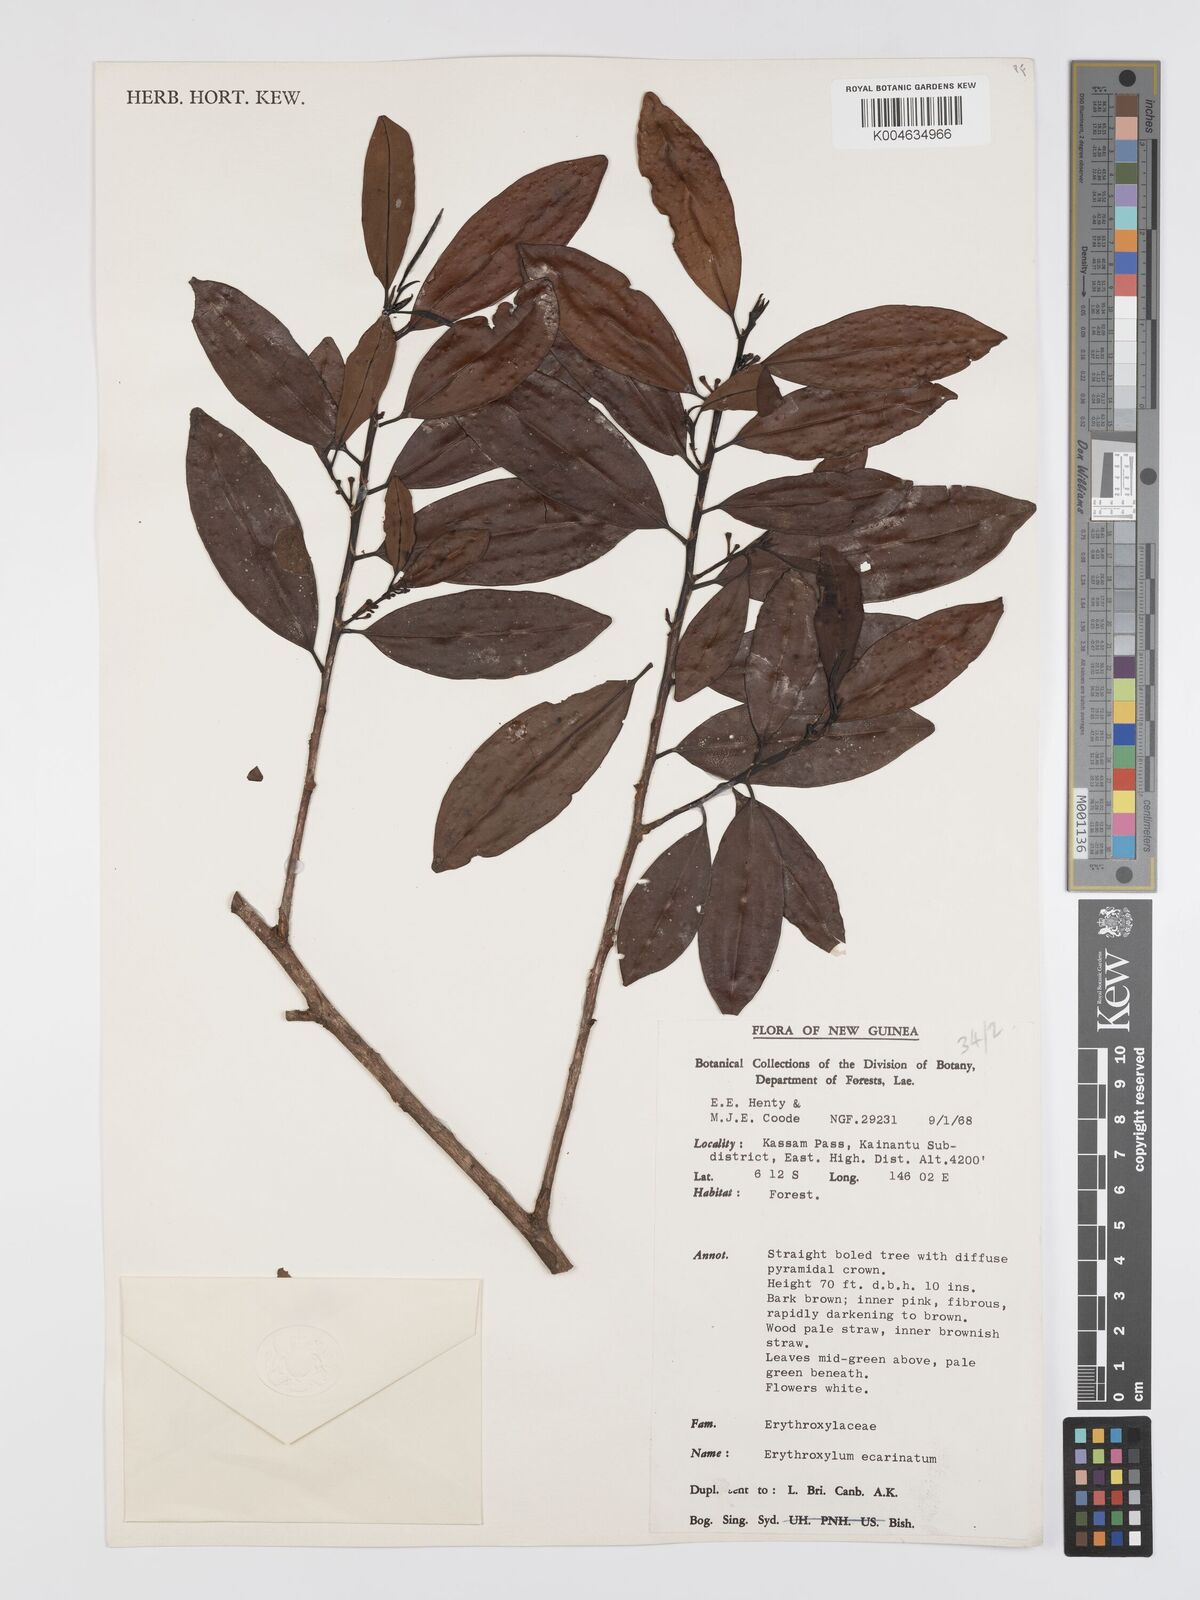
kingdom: Plantae
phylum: Tracheophyta
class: Magnoliopsida
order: Malpighiales
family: Erythroxylaceae
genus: Erythroxylum
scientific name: Erythroxylum ecarinatum
